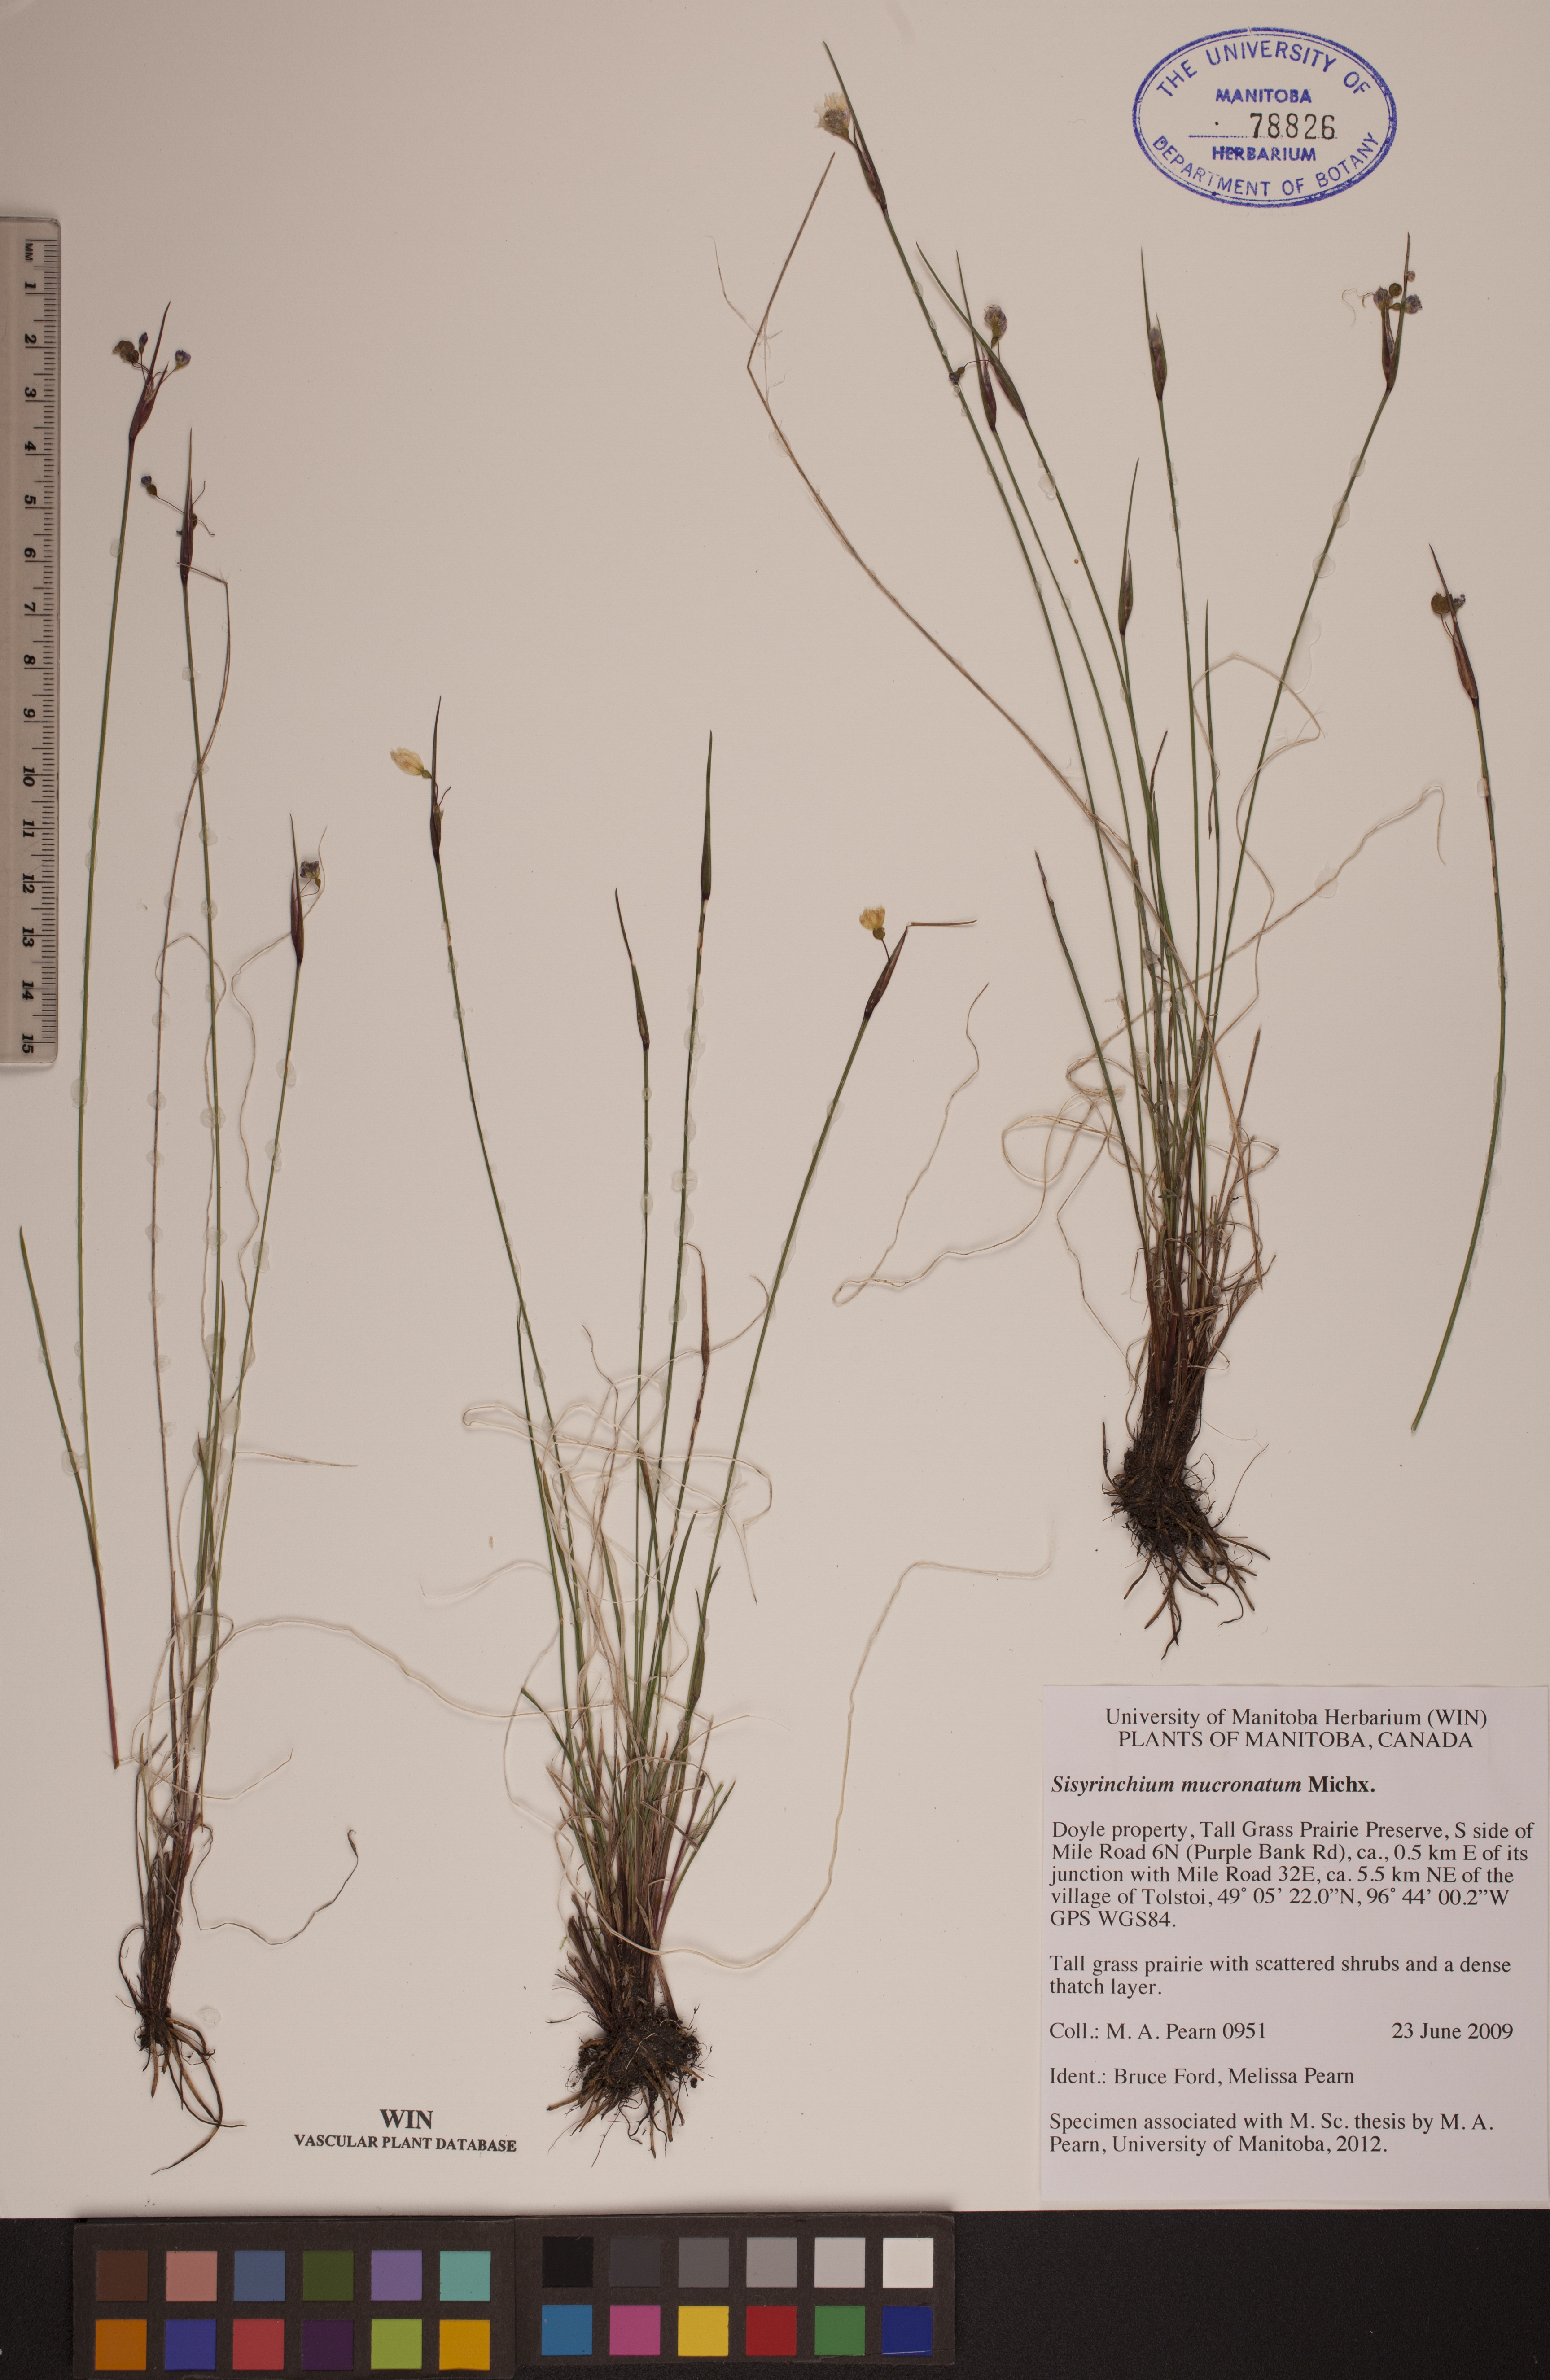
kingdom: Plantae
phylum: Tracheophyta
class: Liliopsida
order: Asparagales
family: Iridaceae
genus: Sisyrinchium
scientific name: Sisyrinchium mucronatum
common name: Eastern blue-eyed-grass
